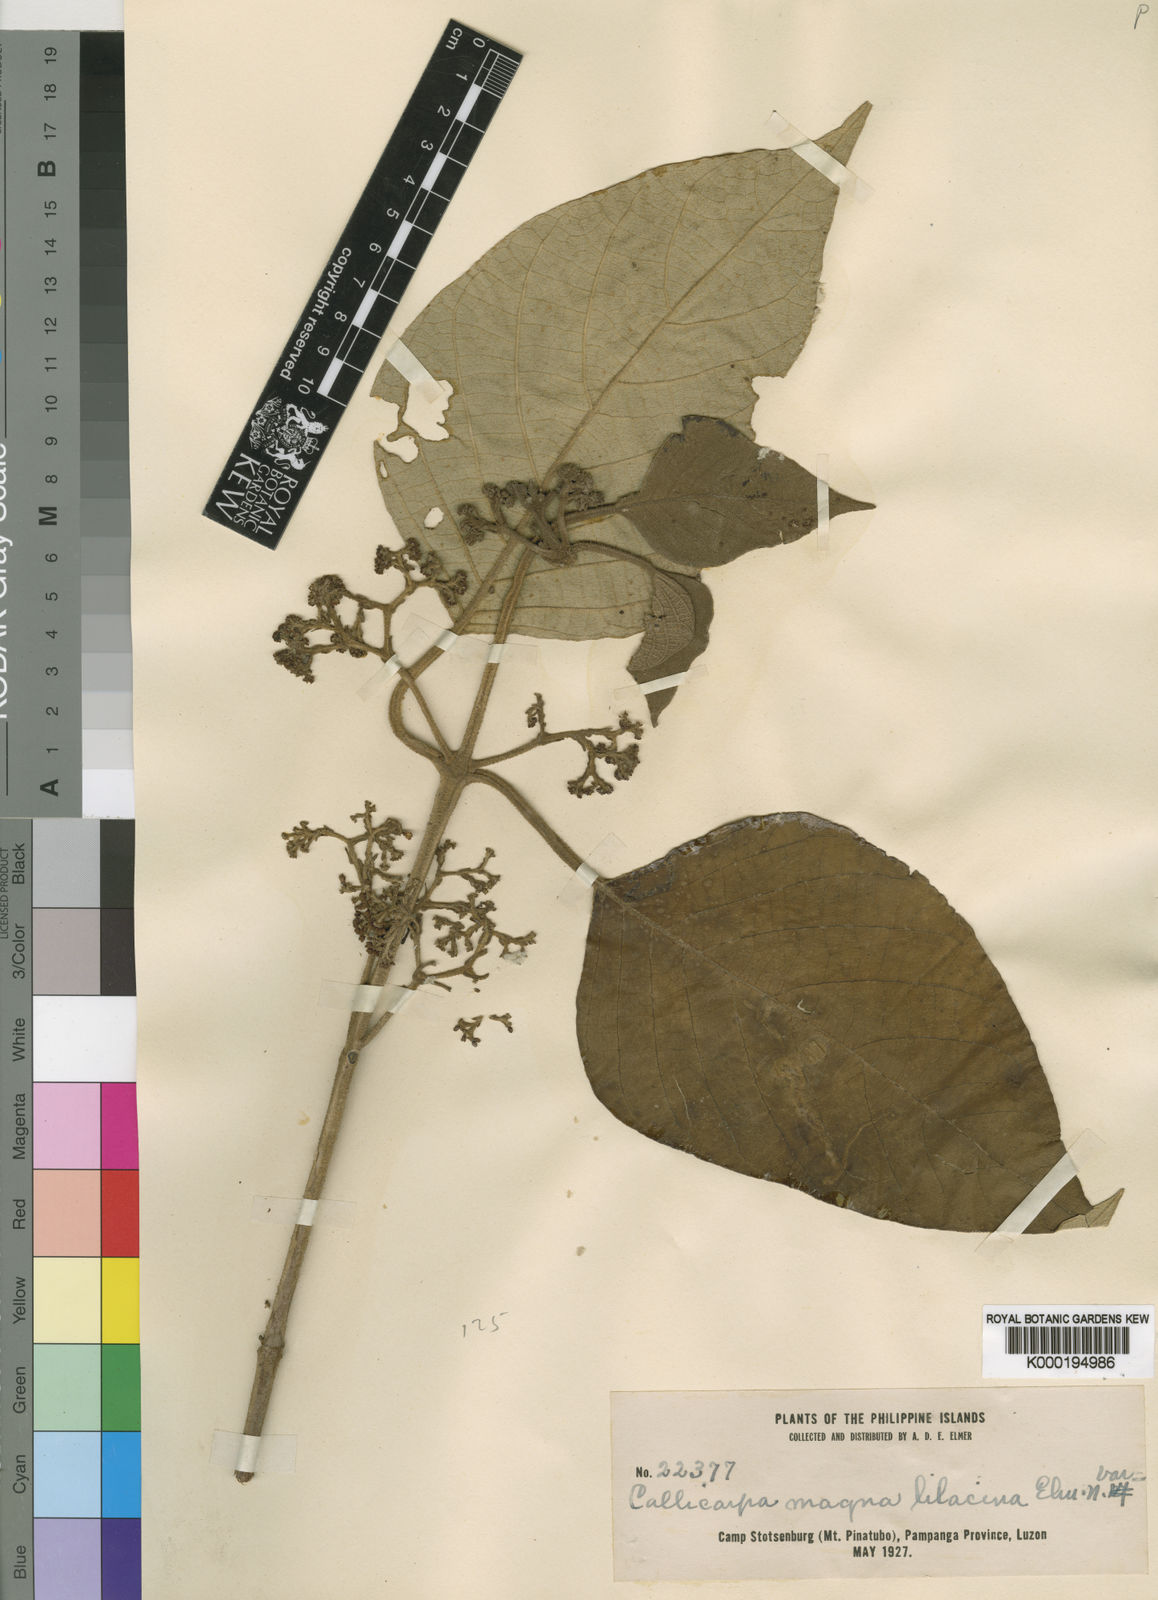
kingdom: Plantae
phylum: Tracheophyta
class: Magnoliopsida
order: Lamiales
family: Lamiaceae
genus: Callicarpa
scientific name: Callicarpa
